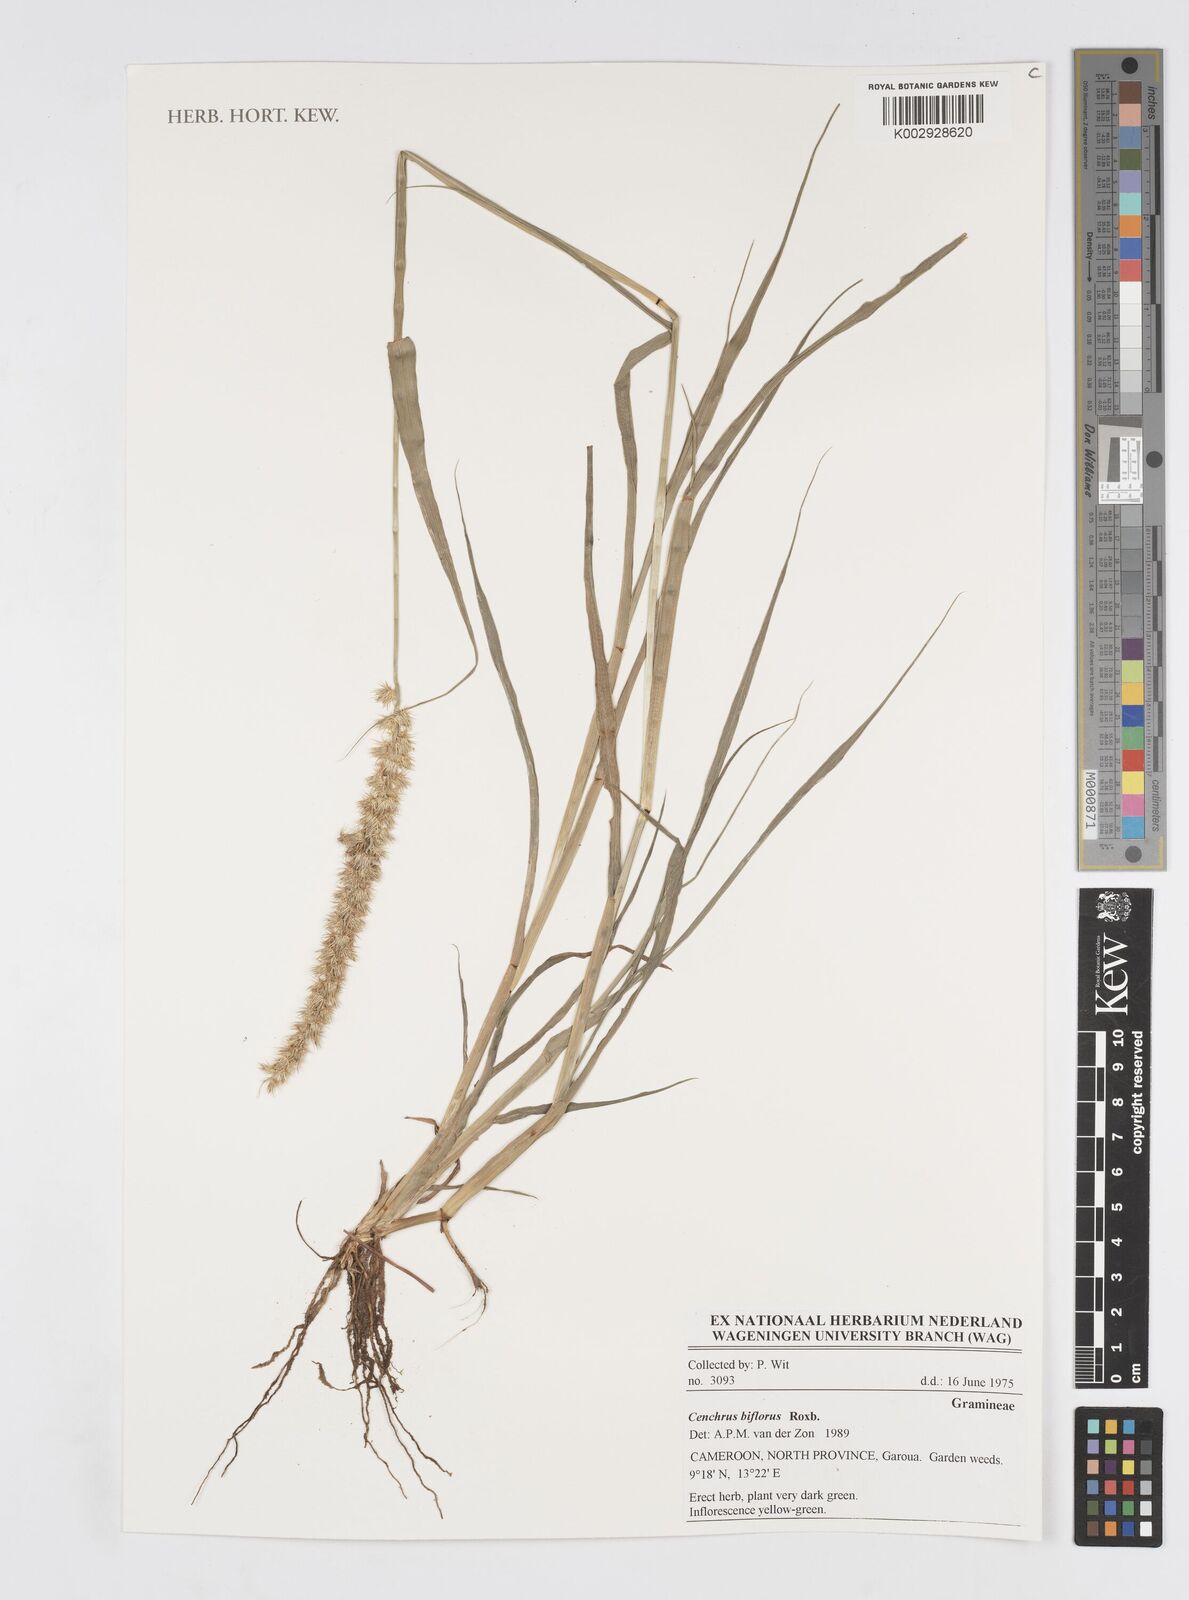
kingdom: Plantae
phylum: Tracheophyta
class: Liliopsida
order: Poales
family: Poaceae
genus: Cenchrus
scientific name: Cenchrus biflorus
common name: Indian sandbur
